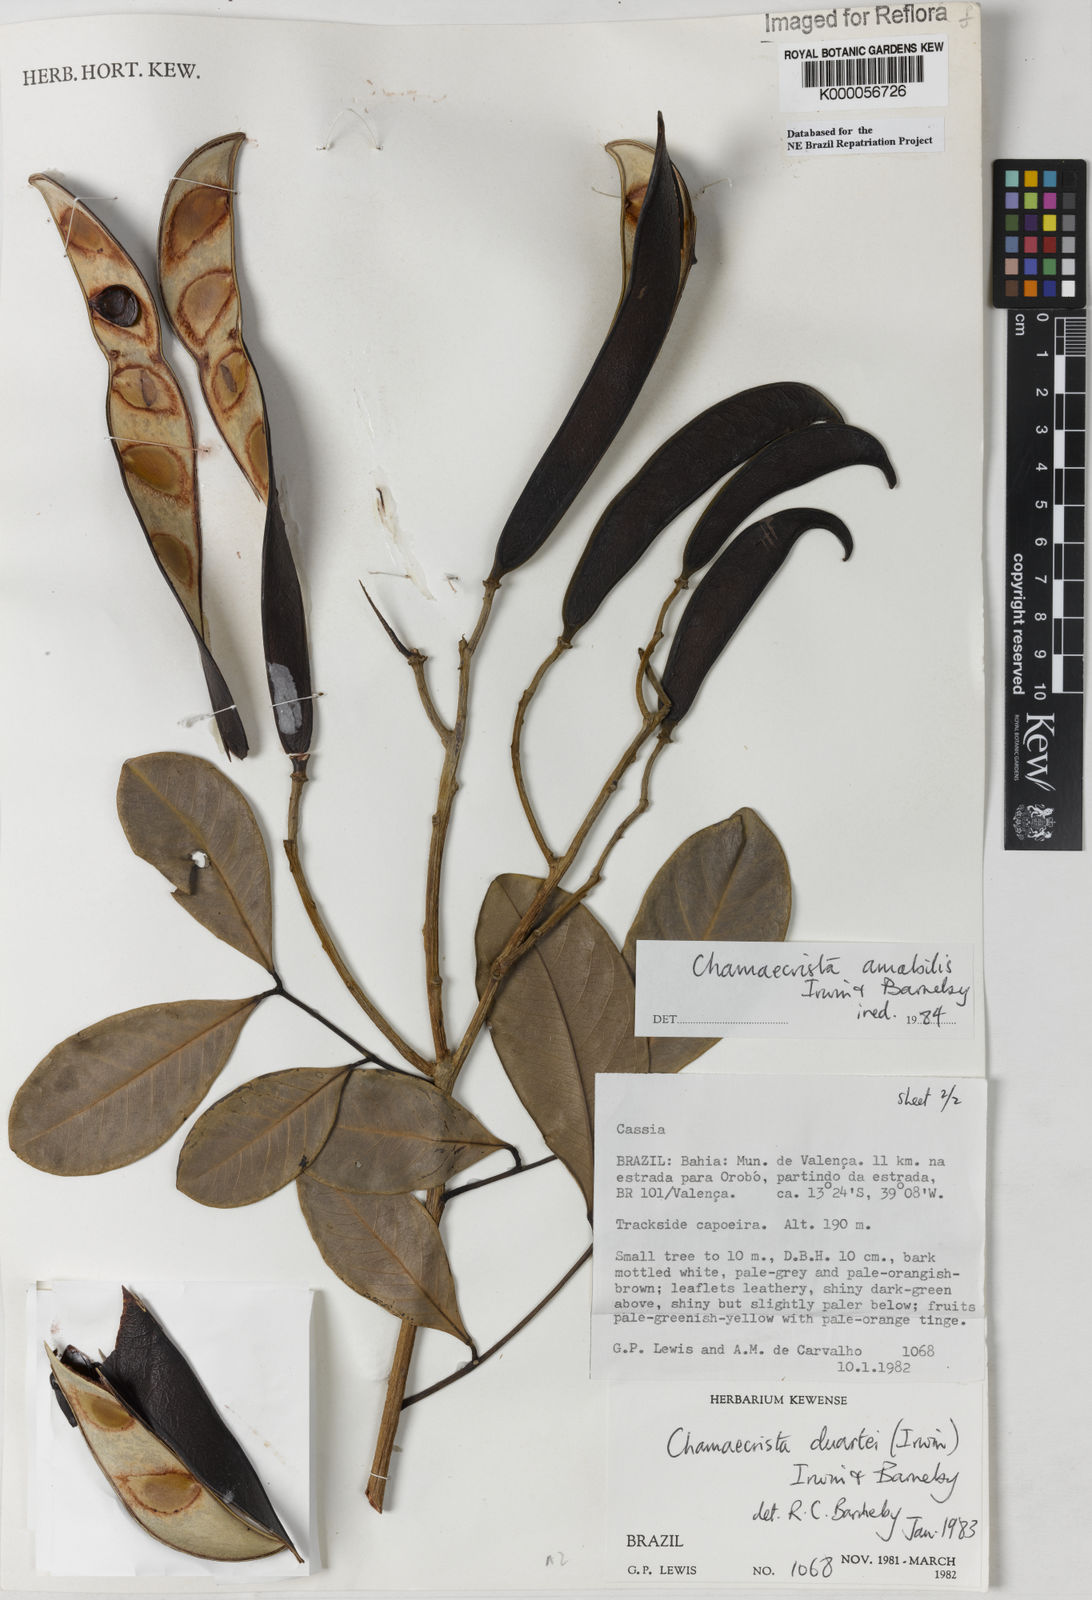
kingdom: Plantae
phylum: Tracheophyta
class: Magnoliopsida
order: Fabales
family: Fabaceae
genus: Chamaecrista
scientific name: Chamaecrista amabilis
